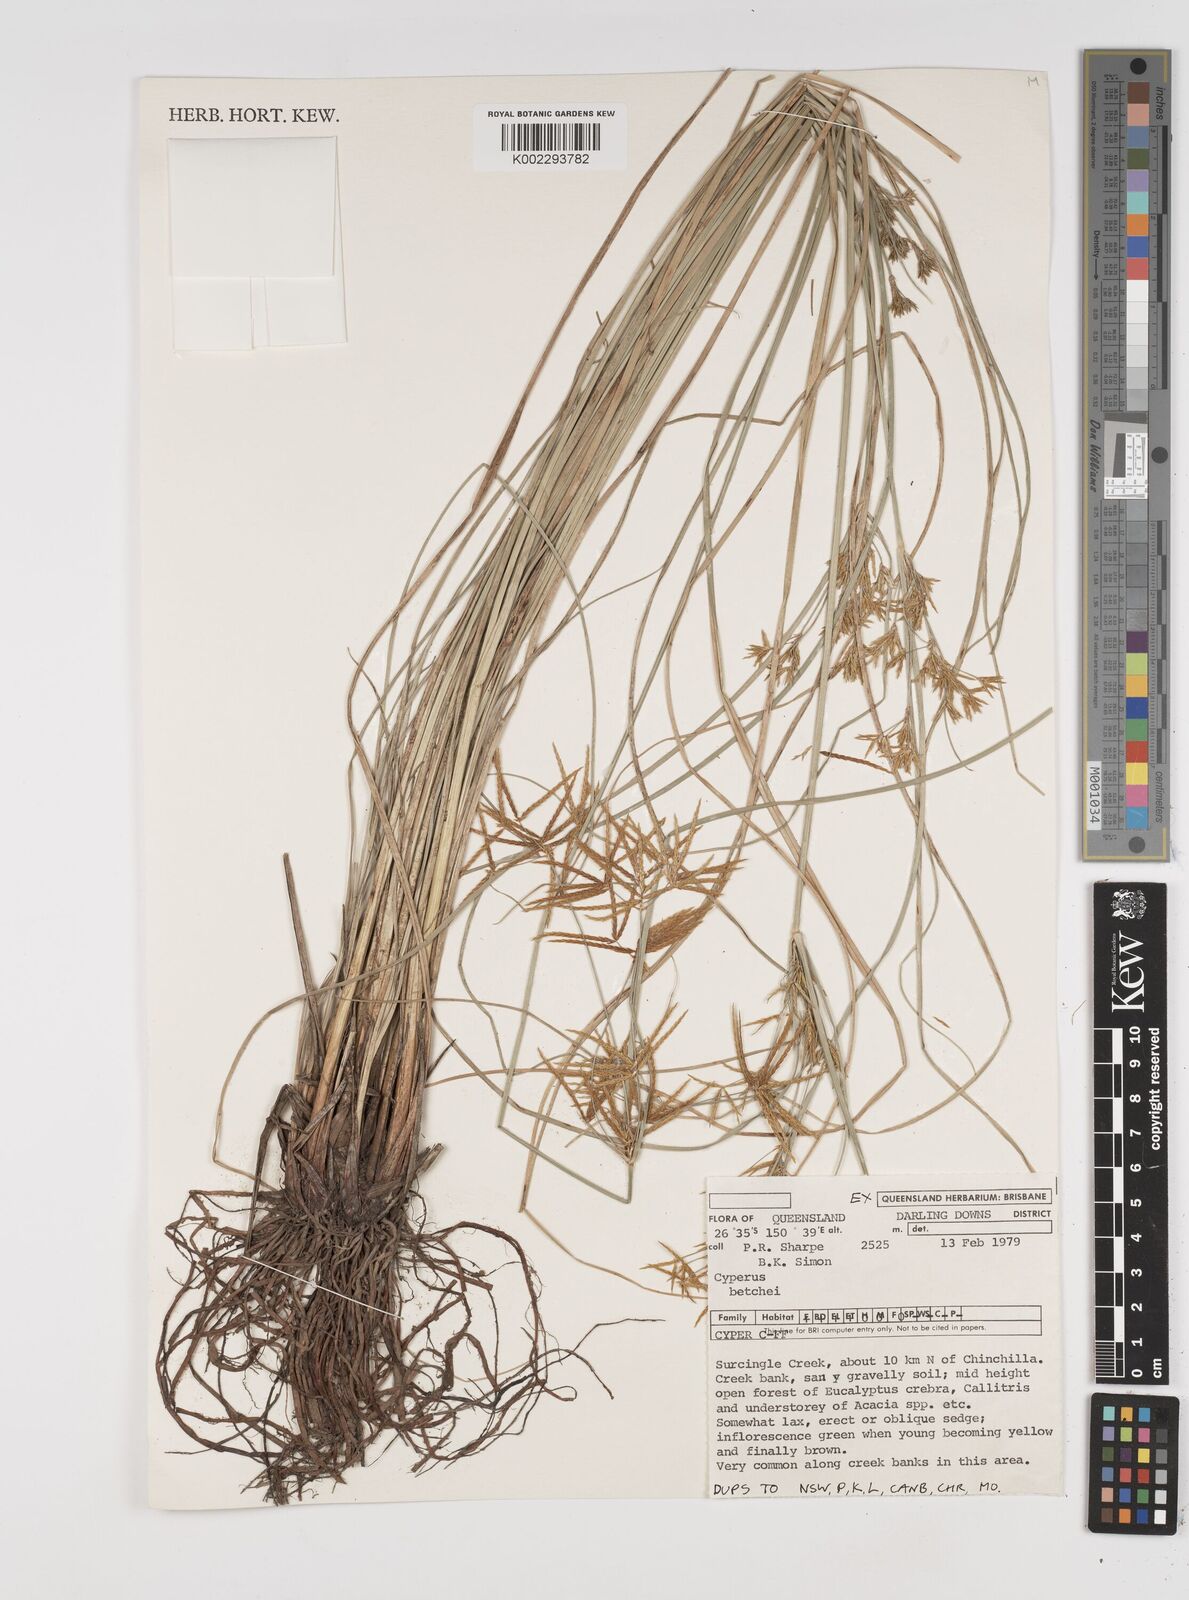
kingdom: Plantae
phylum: Tracheophyta
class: Liliopsida
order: Poales
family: Cyperaceae
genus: Cyperus
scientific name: Cyperus betchei
